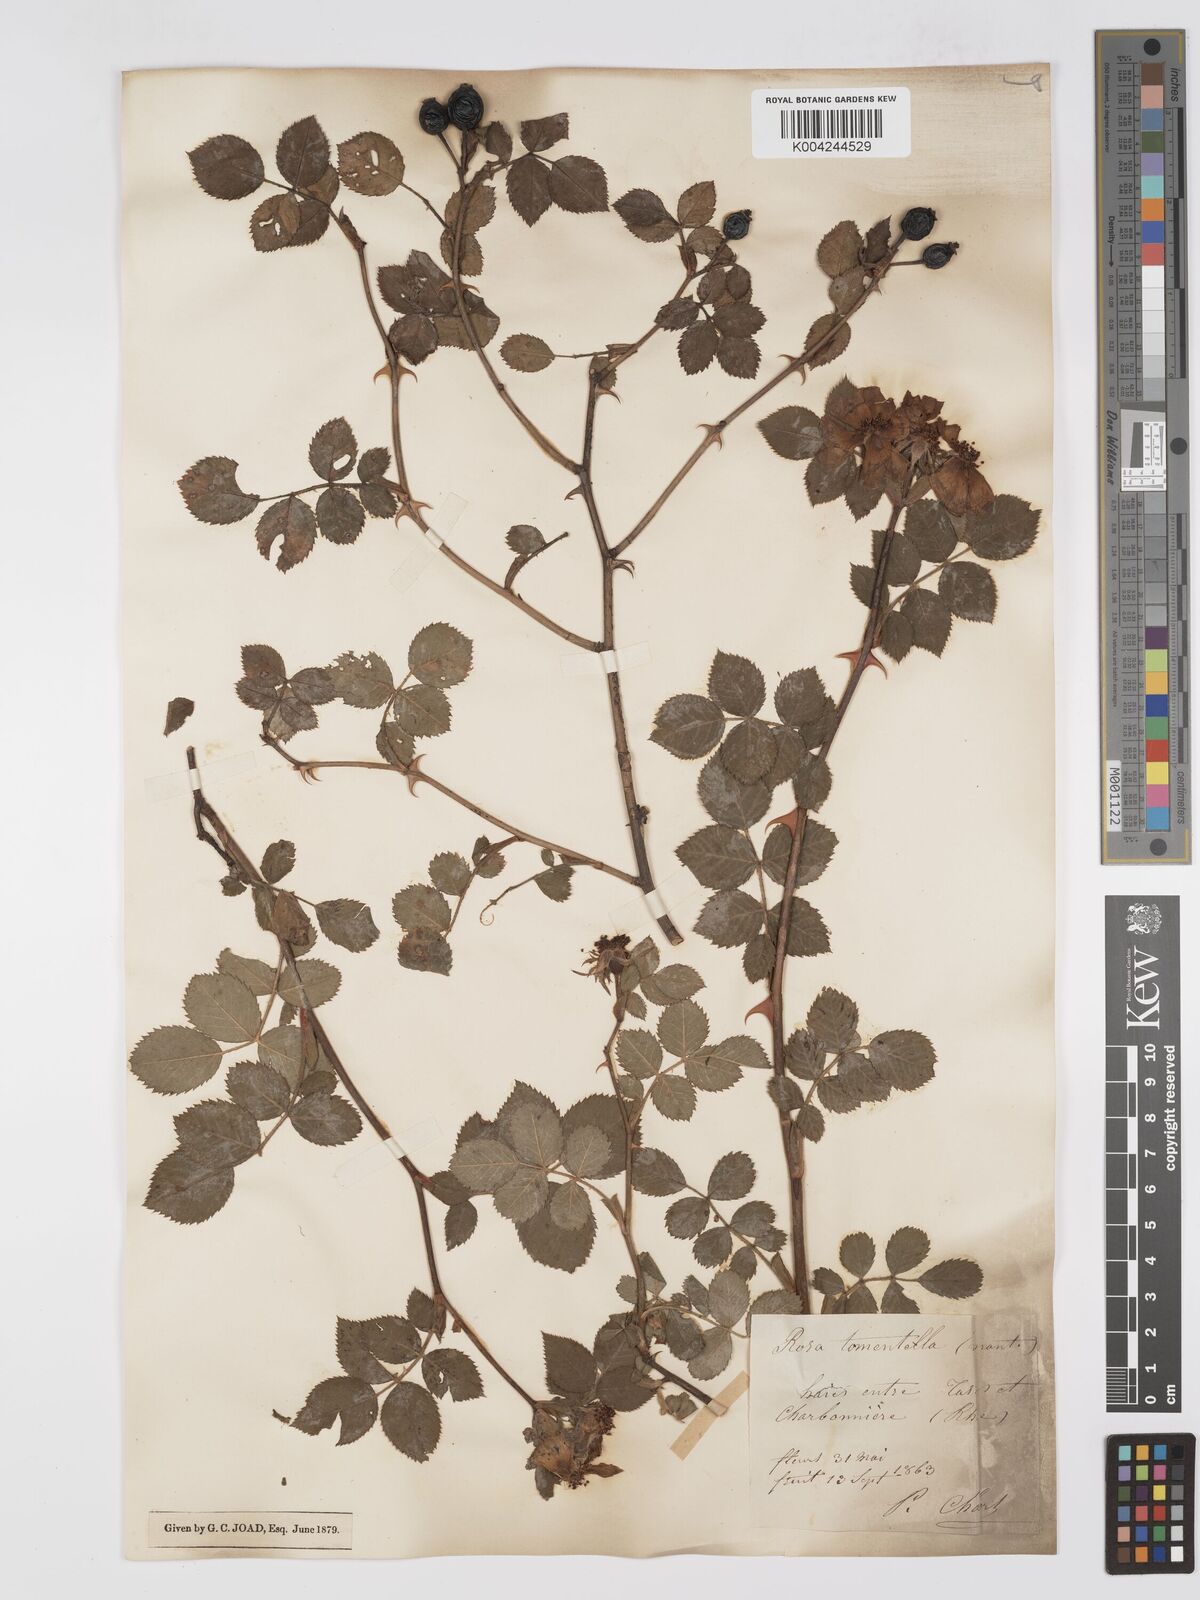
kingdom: Plantae
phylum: Tracheophyta
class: Magnoliopsida
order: Rosales
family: Rosaceae
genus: Rosa
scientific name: Rosa
